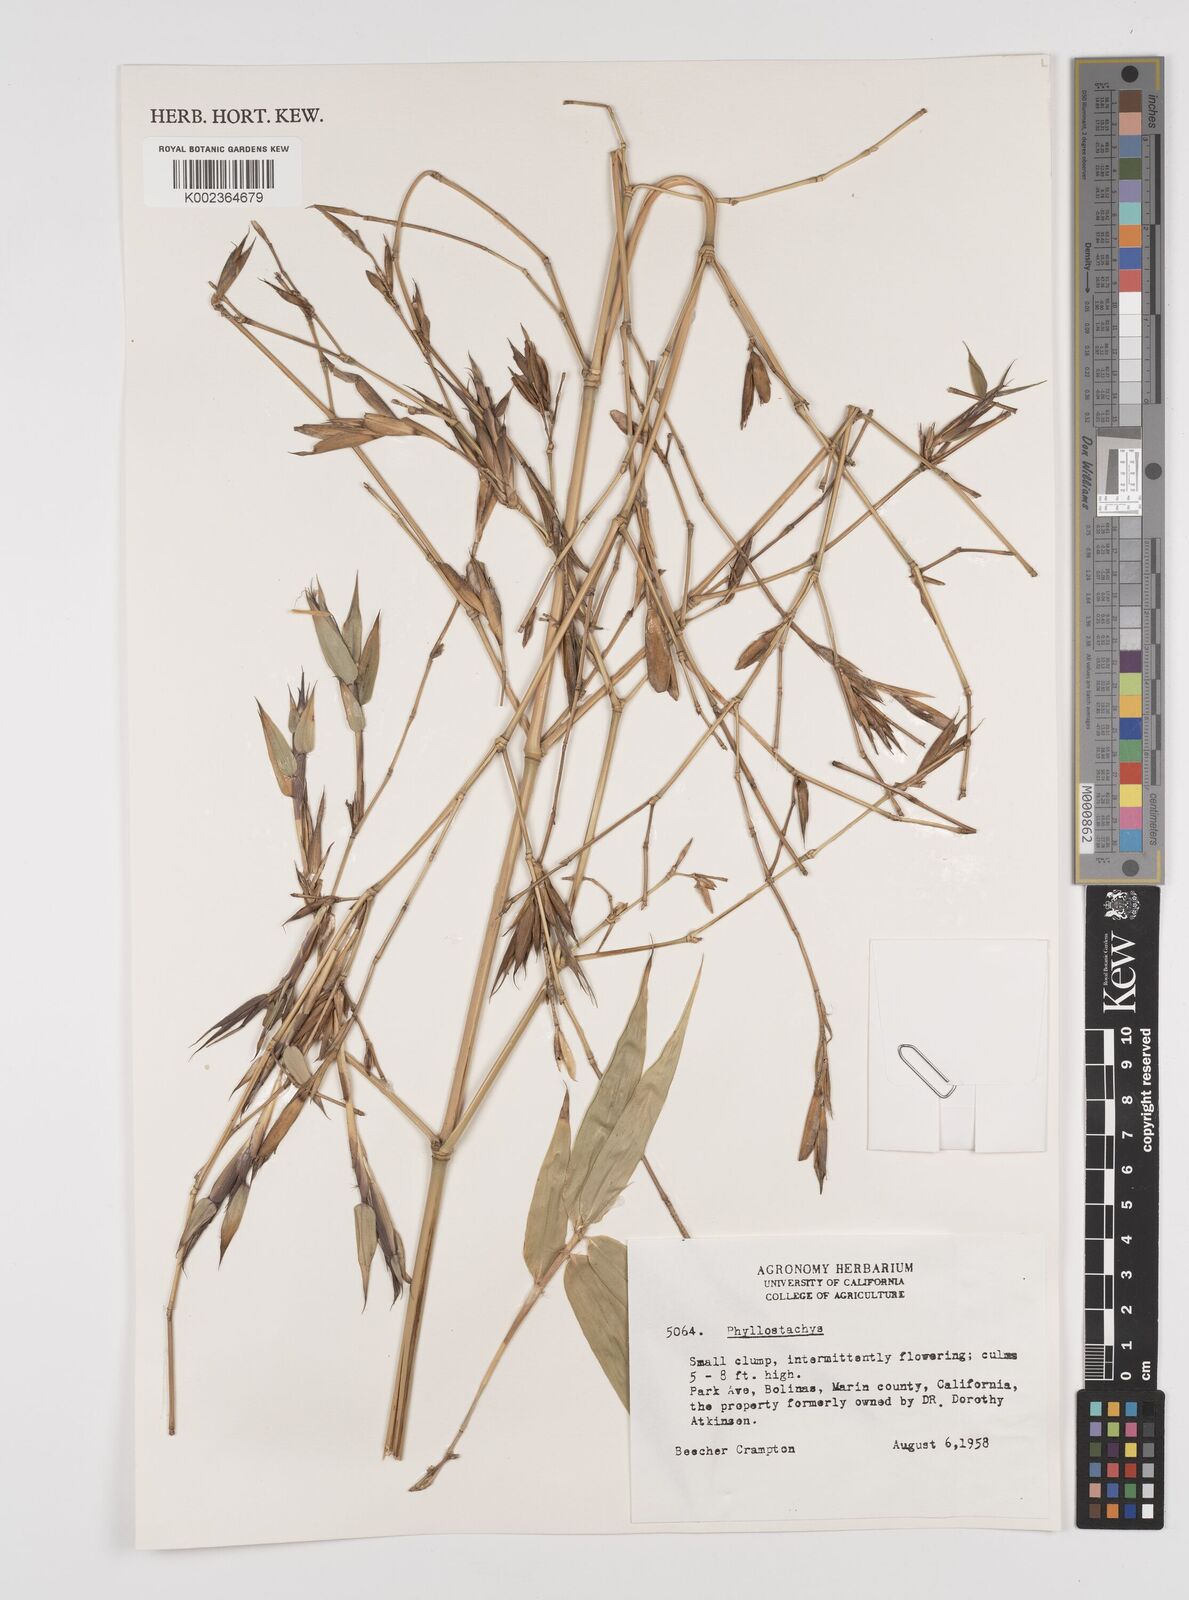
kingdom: Plantae
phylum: Tracheophyta
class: Liliopsida
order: Poales
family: Poaceae
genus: Phyllostachys
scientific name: Phyllostachys
